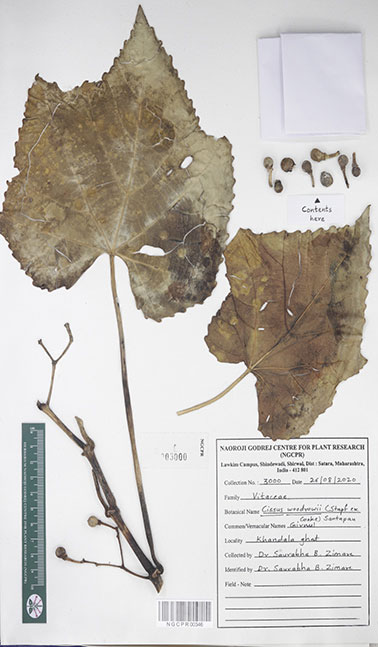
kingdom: Plantae
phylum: Tracheophyta
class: Magnoliopsida
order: Vitales
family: Vitaceae
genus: Cissus
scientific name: Cissus woodrowii
